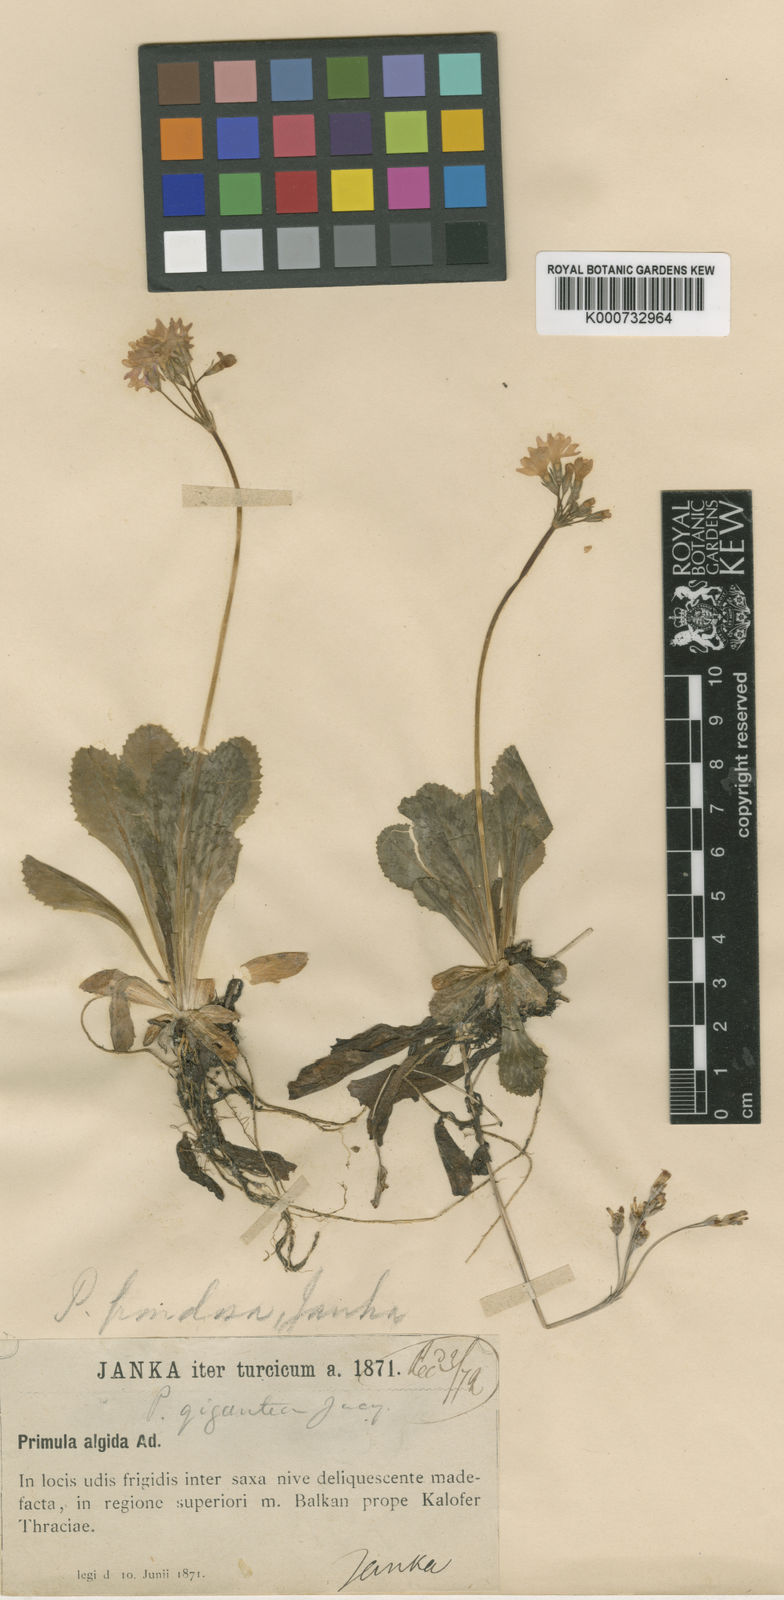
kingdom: Plantae
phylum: Tracheophyta
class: Magnoliopsida
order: Ericales
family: Primulaceae
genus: Primula
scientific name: Primula frondosa
